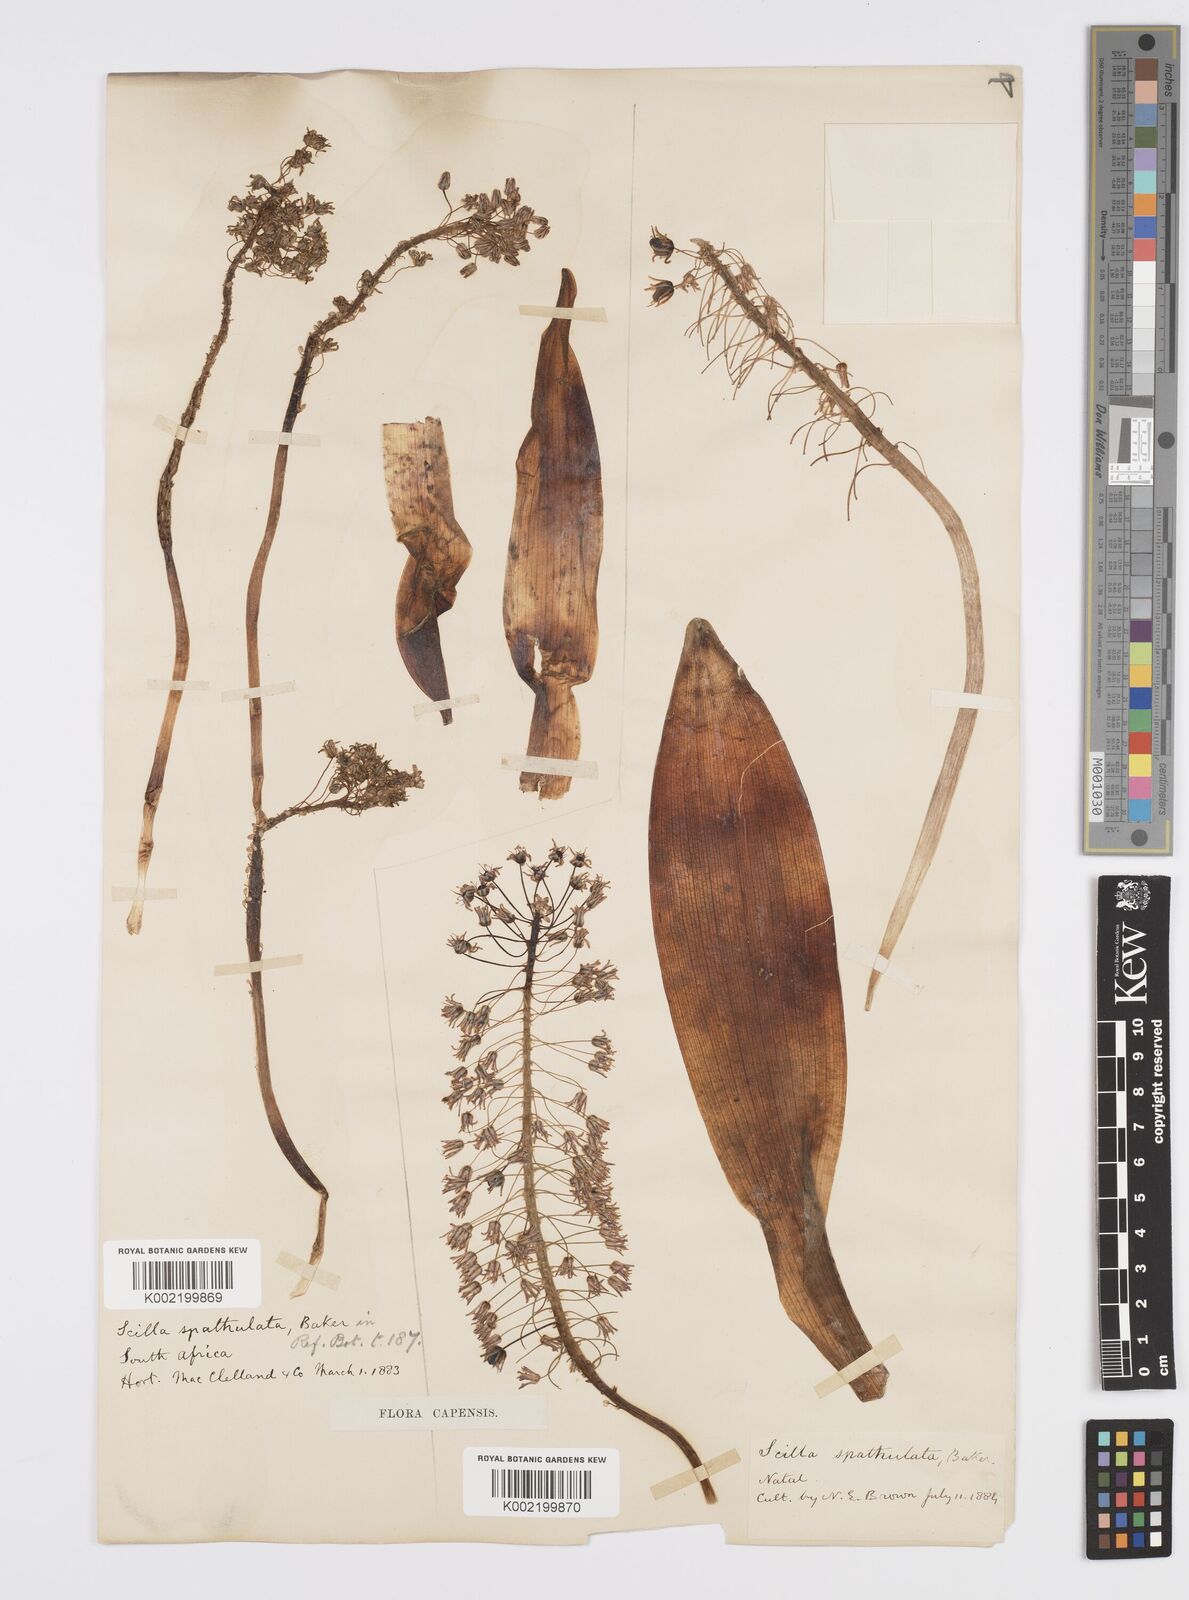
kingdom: Plantae
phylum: Tracheophyta
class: Liliopsida
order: Asparagales
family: Asparagaceae
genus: Ledebouria
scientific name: Ledebouria floribunda
